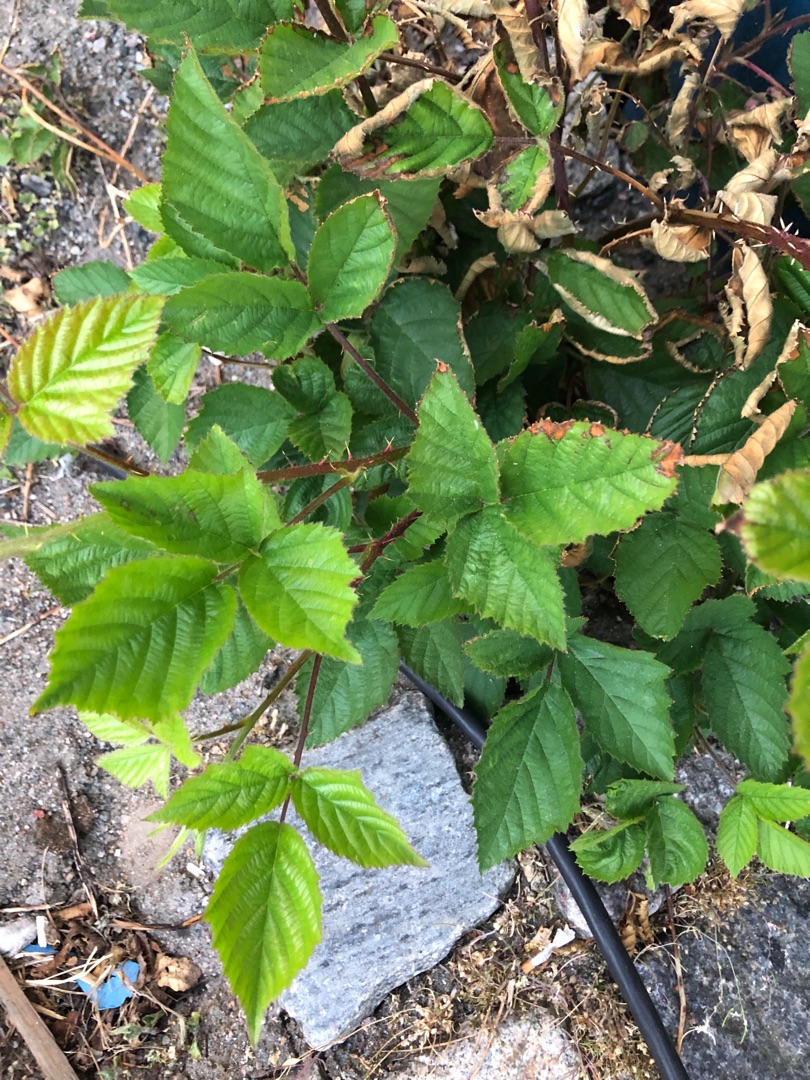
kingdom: Plantae
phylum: Tracheophyta
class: Magnoliopsida
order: Rosales
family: Rosaceae
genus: Rubus
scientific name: Rubus
